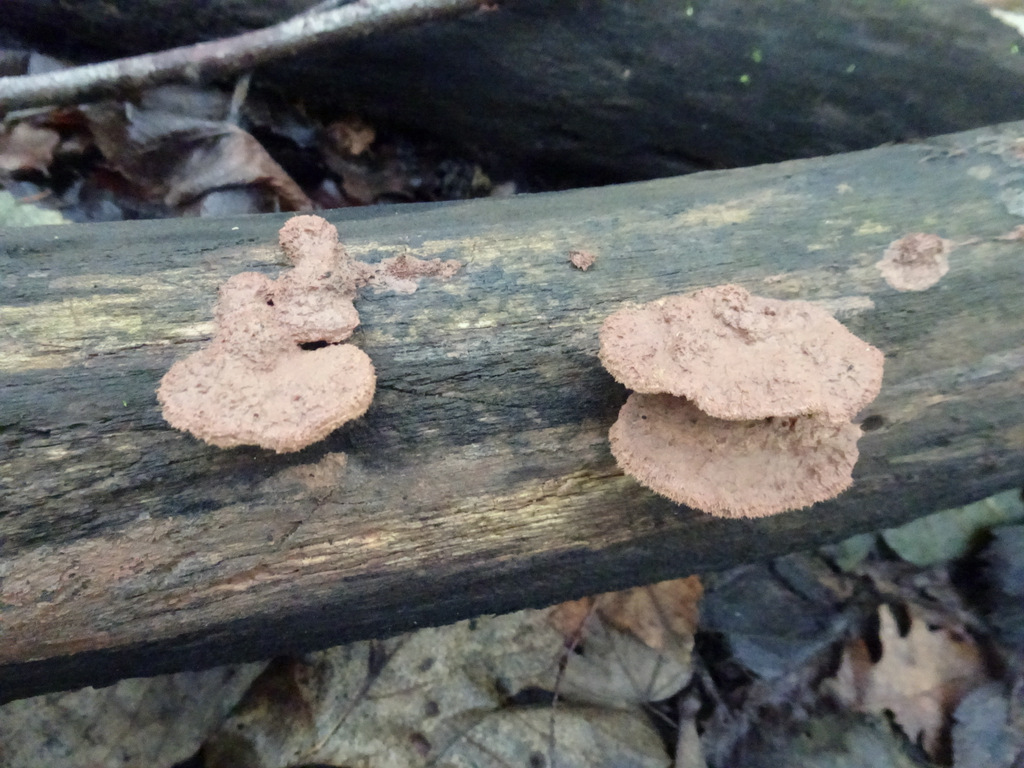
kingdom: Fungi
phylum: Basidiomycota
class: Agaricomycetes
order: Polyporales
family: Phanerochaetaceae
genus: Hapalopilus
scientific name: Hapalopilus rutilans
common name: rødlig okkerporesvamp
